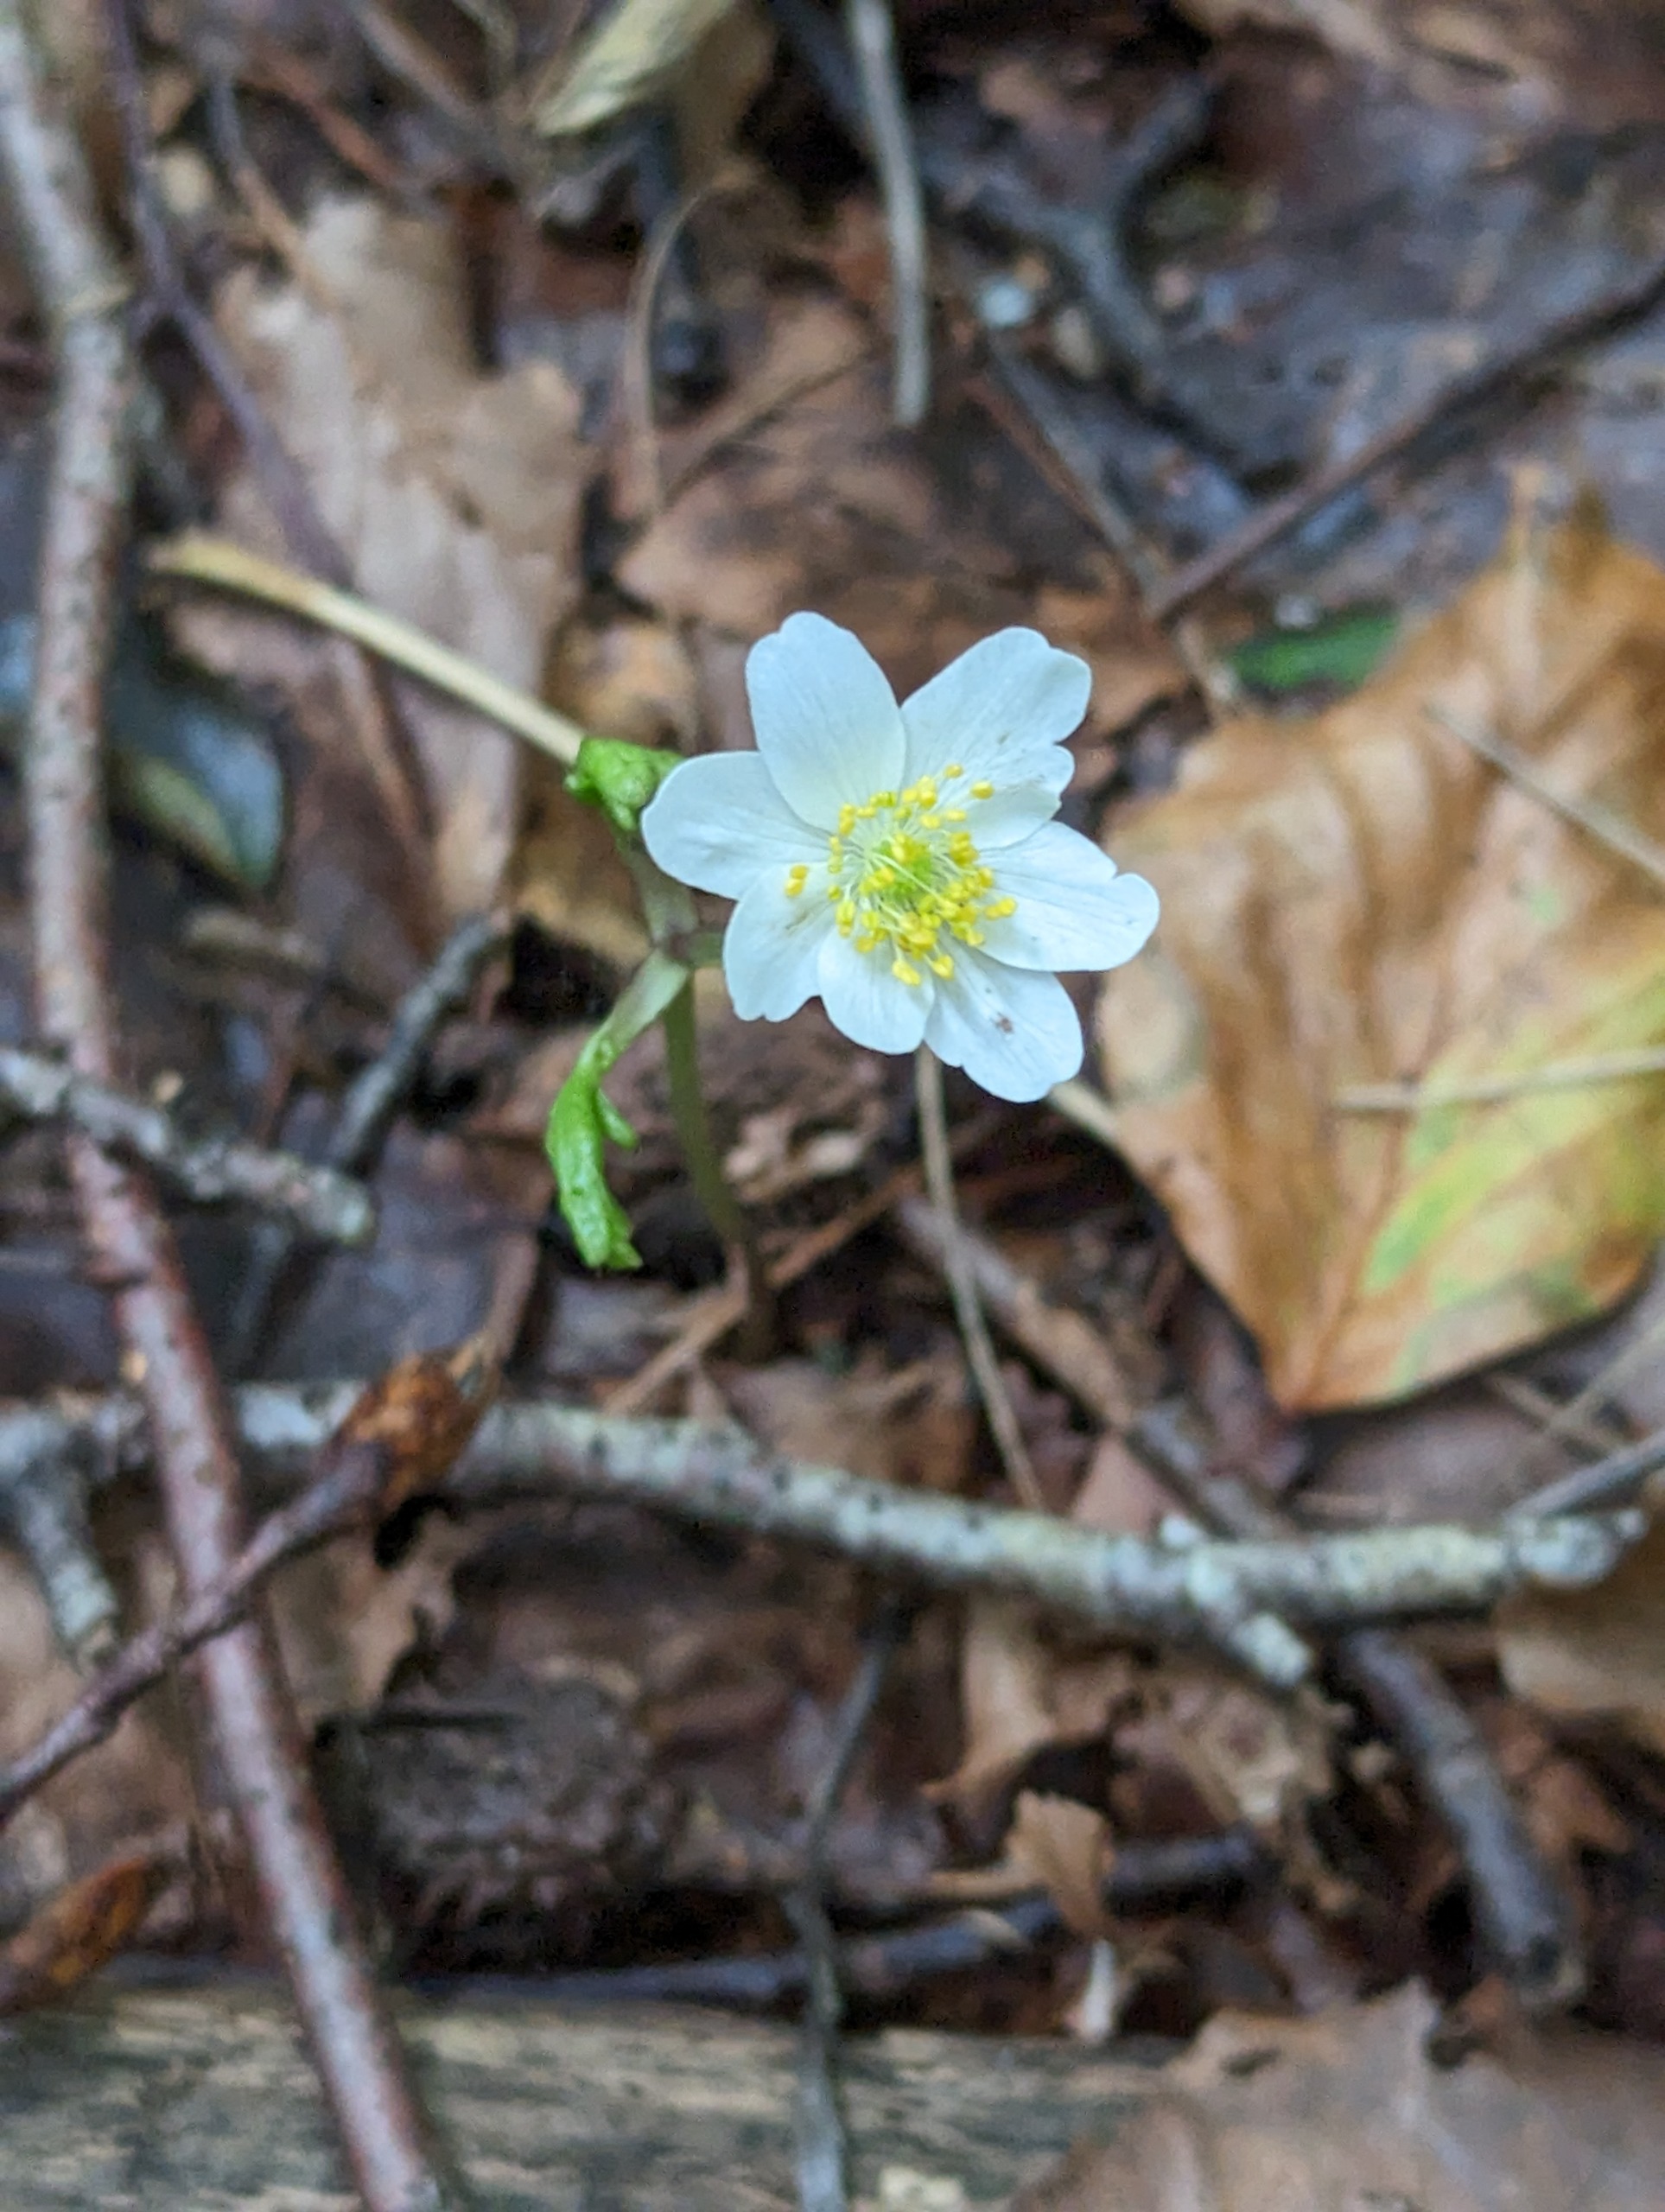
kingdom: Plantae
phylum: Tracheophyta
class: Magnoliopsida
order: Ranunculales
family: Ranunculaceae
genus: Anemone
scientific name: Anemone nemorosa
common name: Hvid anemone
